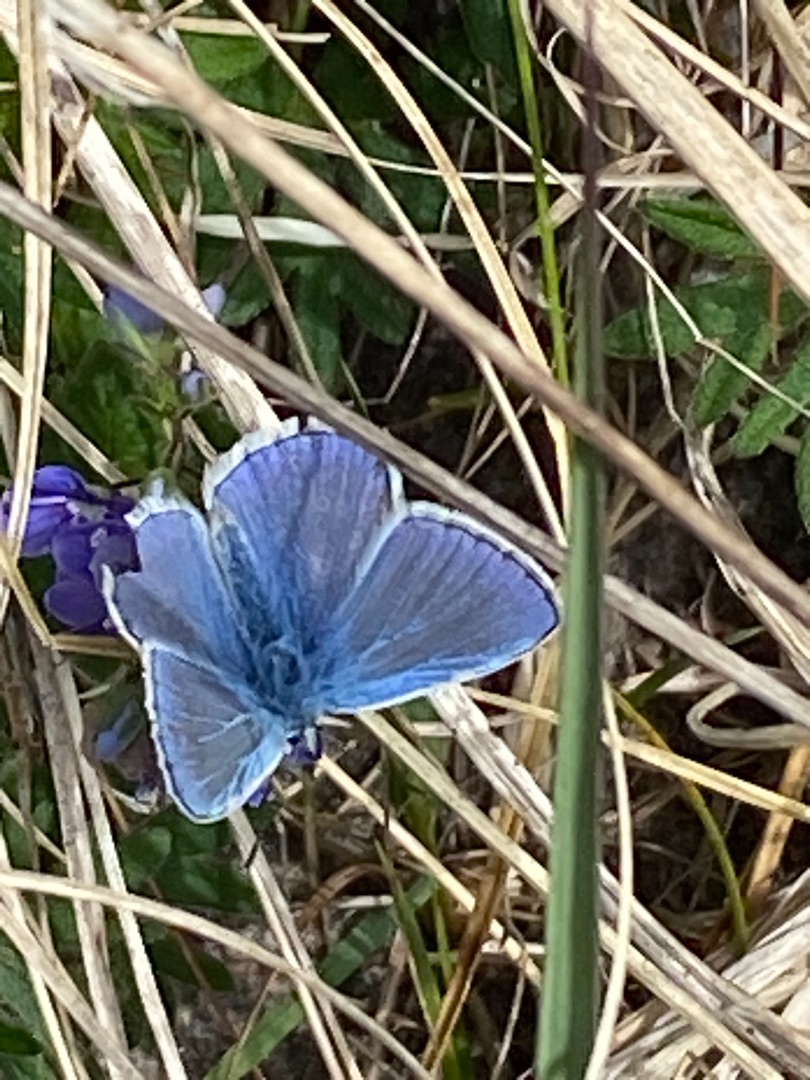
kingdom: Animalia
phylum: Arthropoda
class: Insecta
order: Lepidoptera
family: Lycaenidae
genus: Polyommatus
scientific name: Polyommatus icarus
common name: Almindelig blåfugl
